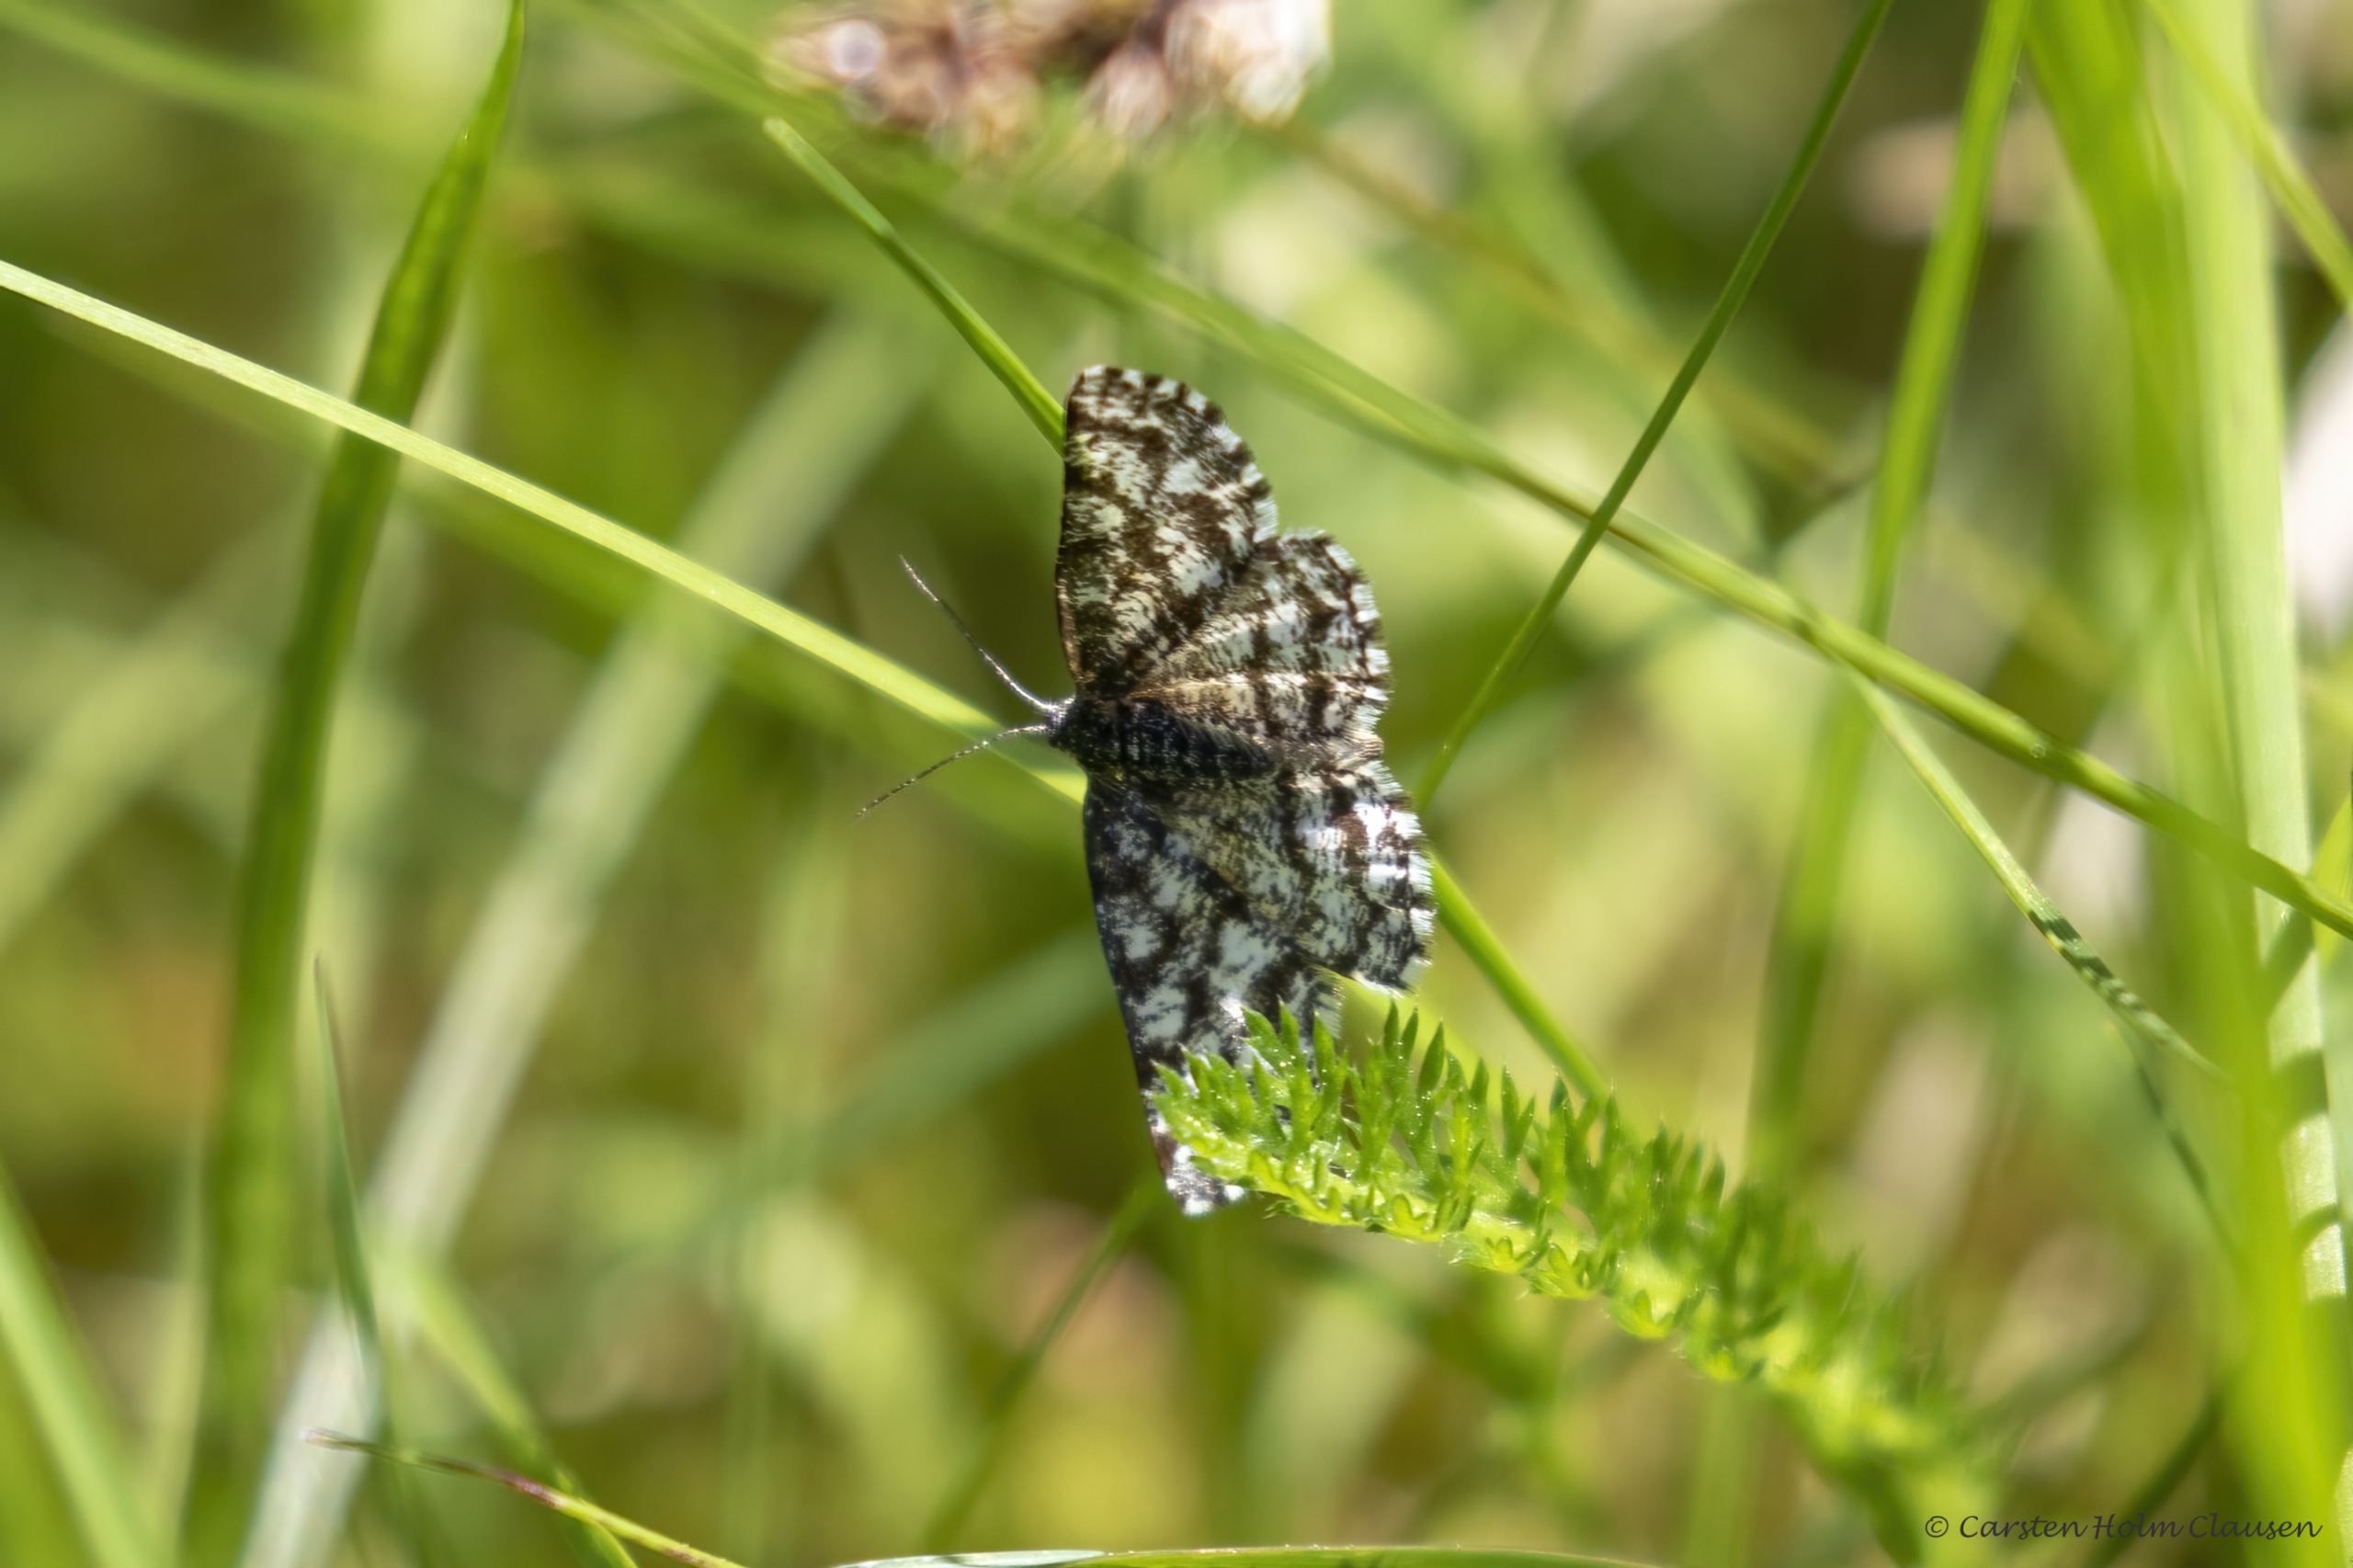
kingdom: Animalia
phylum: Arthropoda
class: Insecta
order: Lepidoptera
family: Geometridae
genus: Ematurga
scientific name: Ematurga atomaria
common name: Lyngmåler
